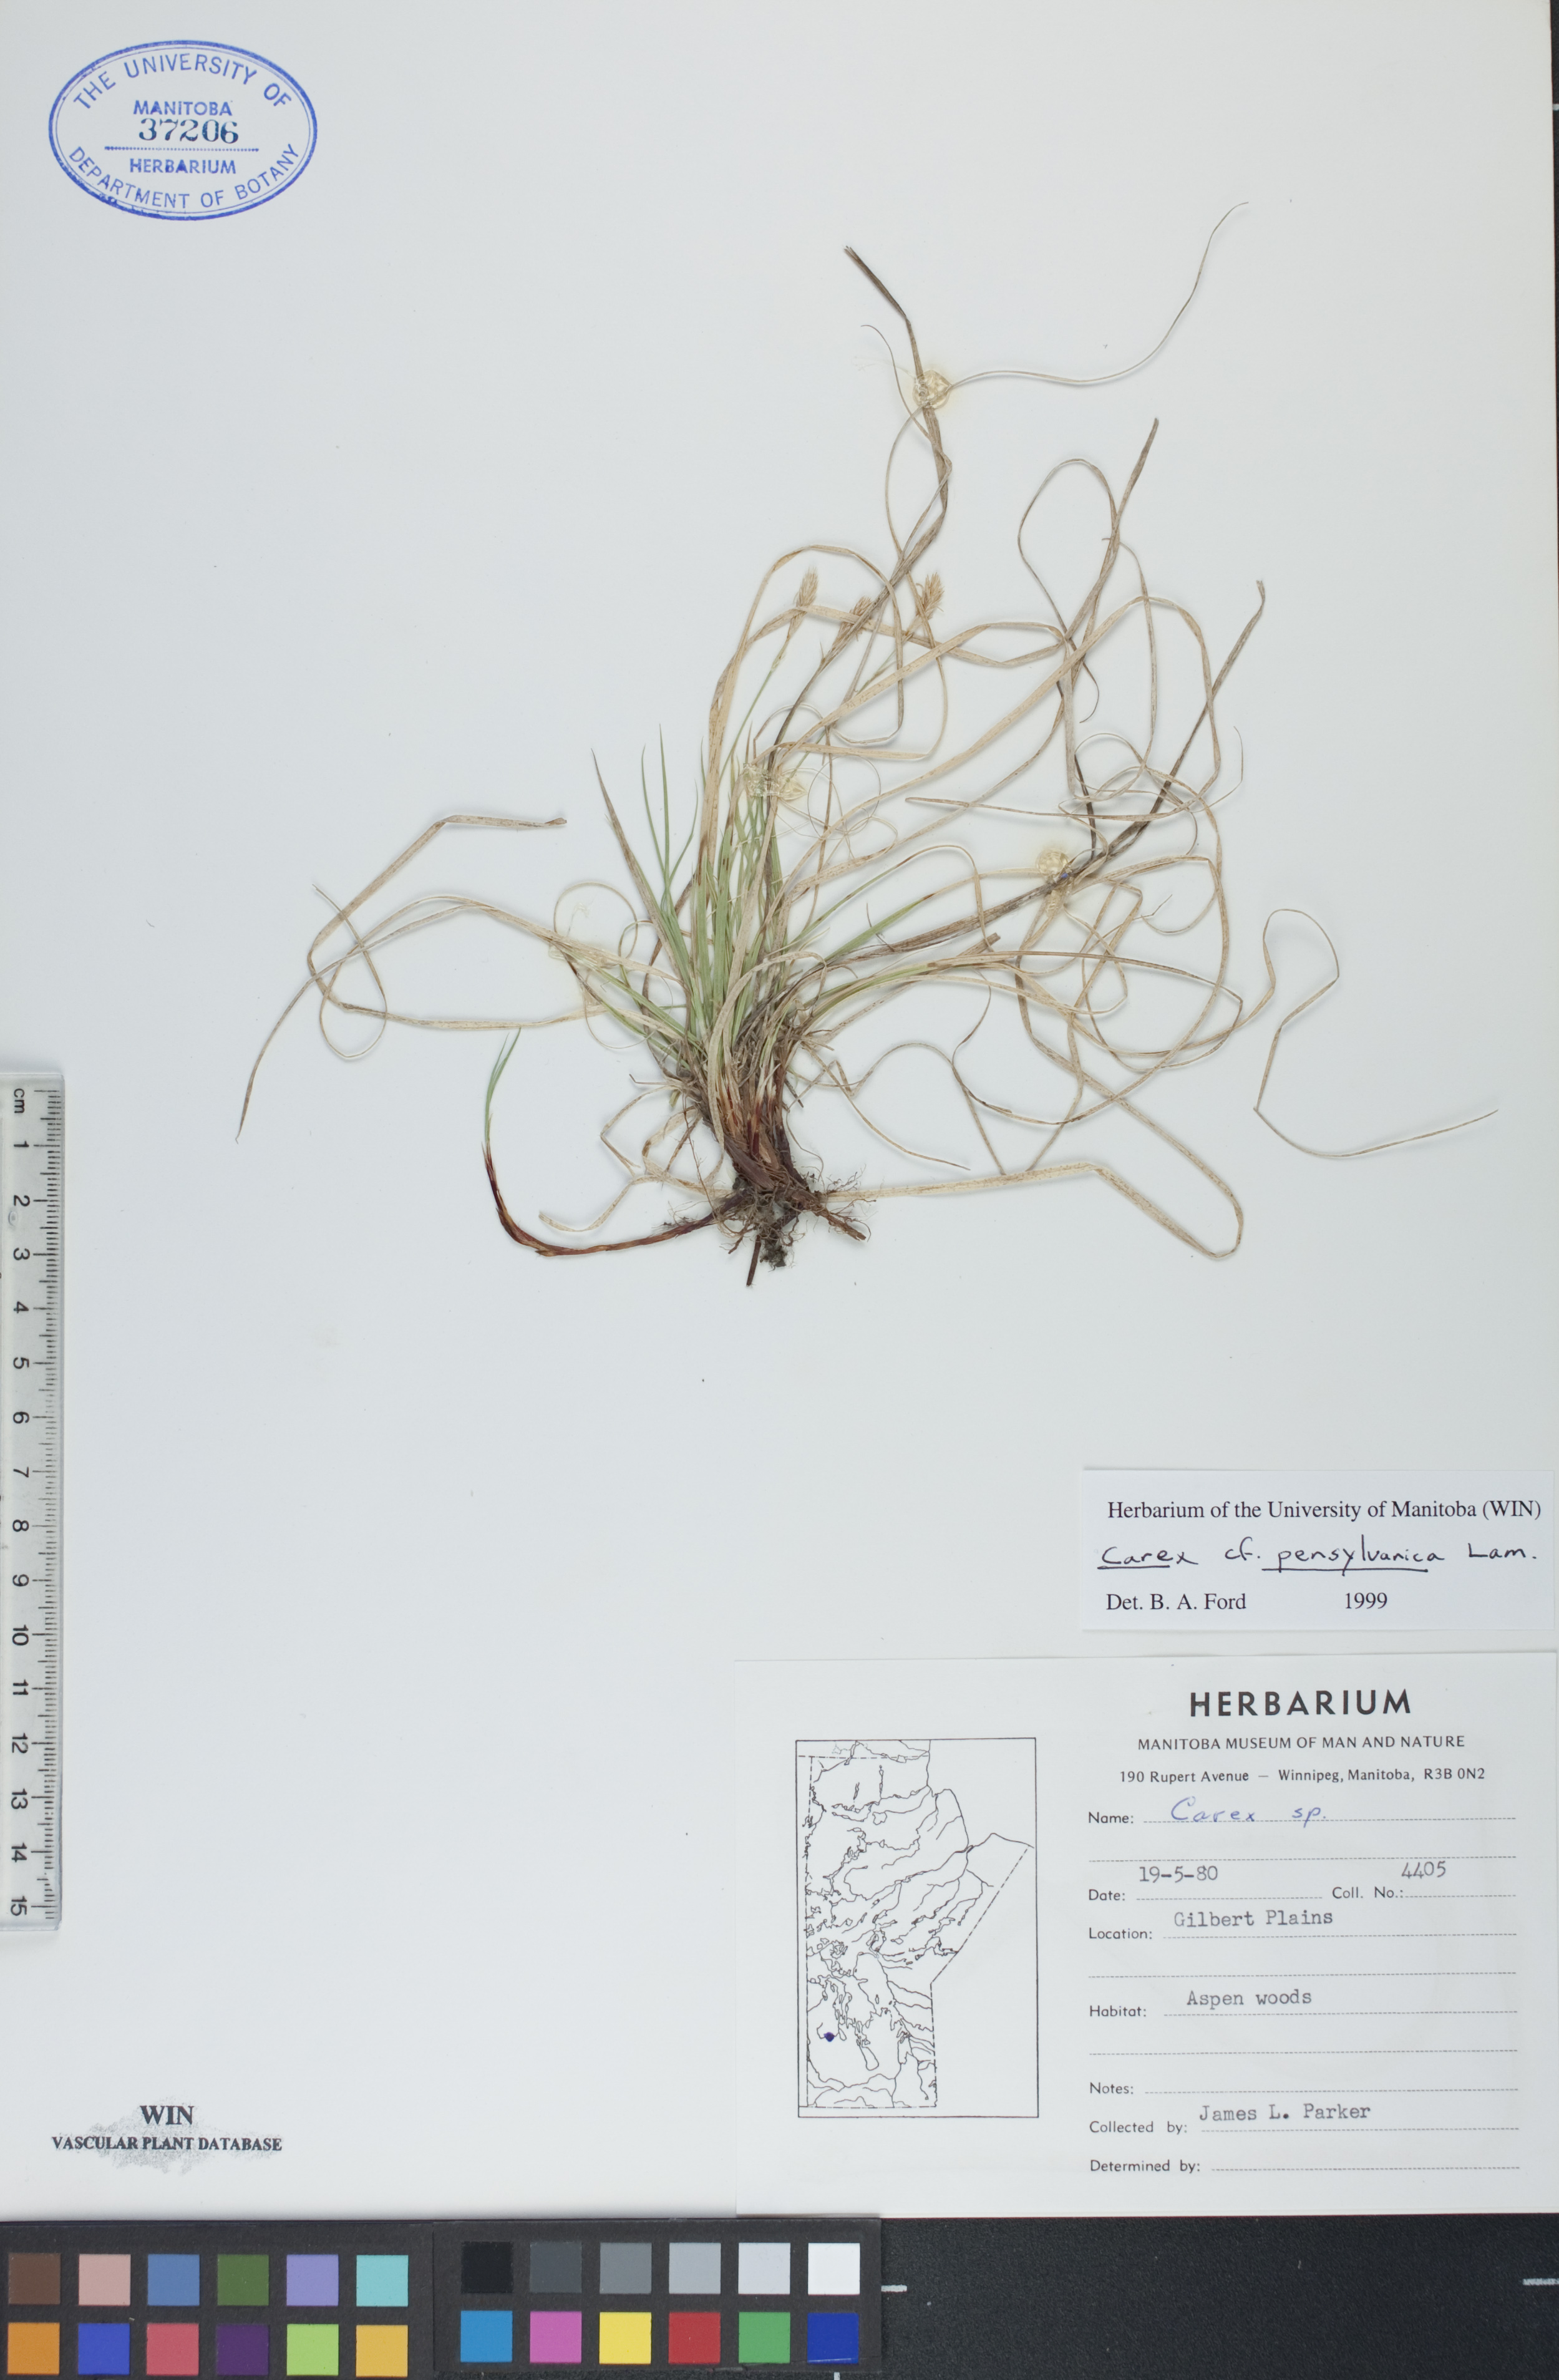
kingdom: Plantae
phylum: Tracheophyta
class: Liliopsida
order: Poales
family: Cyperaceae
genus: Carex
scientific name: Carex pensylvanica
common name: Common oak sedge
